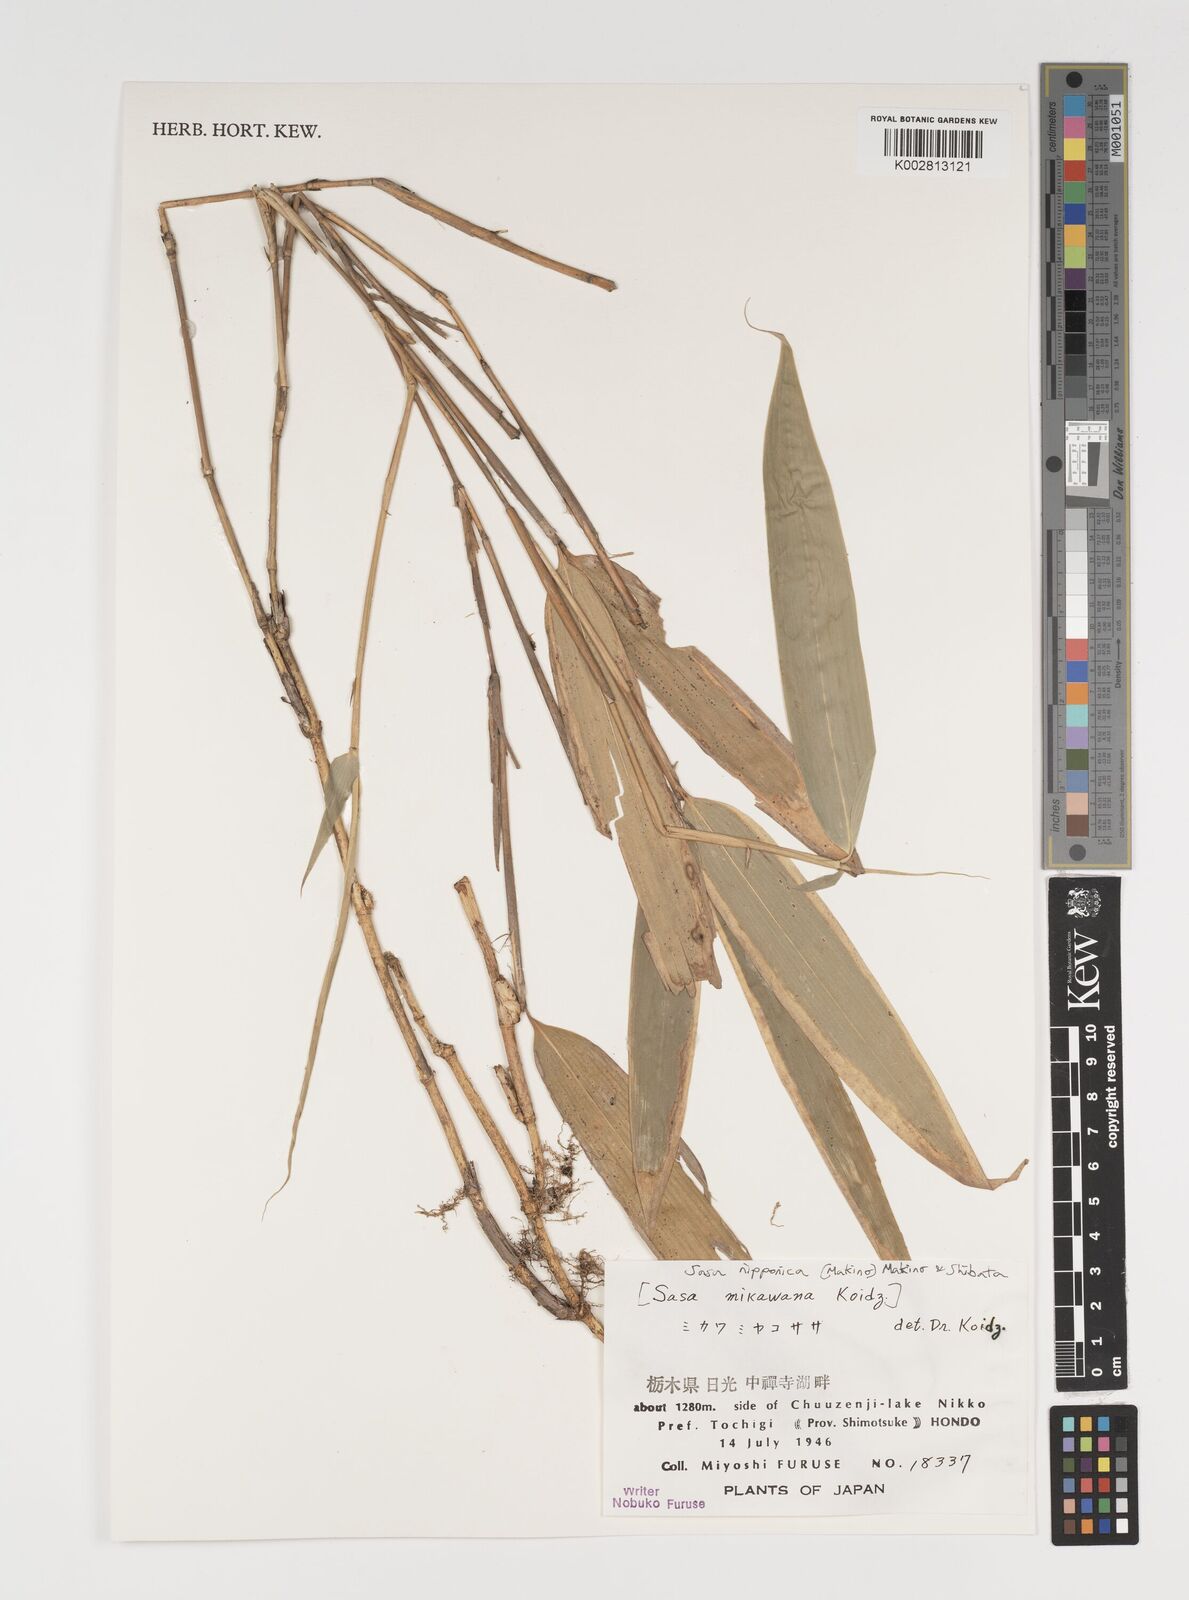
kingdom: Plantae
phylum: Tracheophyta
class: Liliopsida
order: Poales
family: Poaceae
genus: Sasa
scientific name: Sasa nipponica
